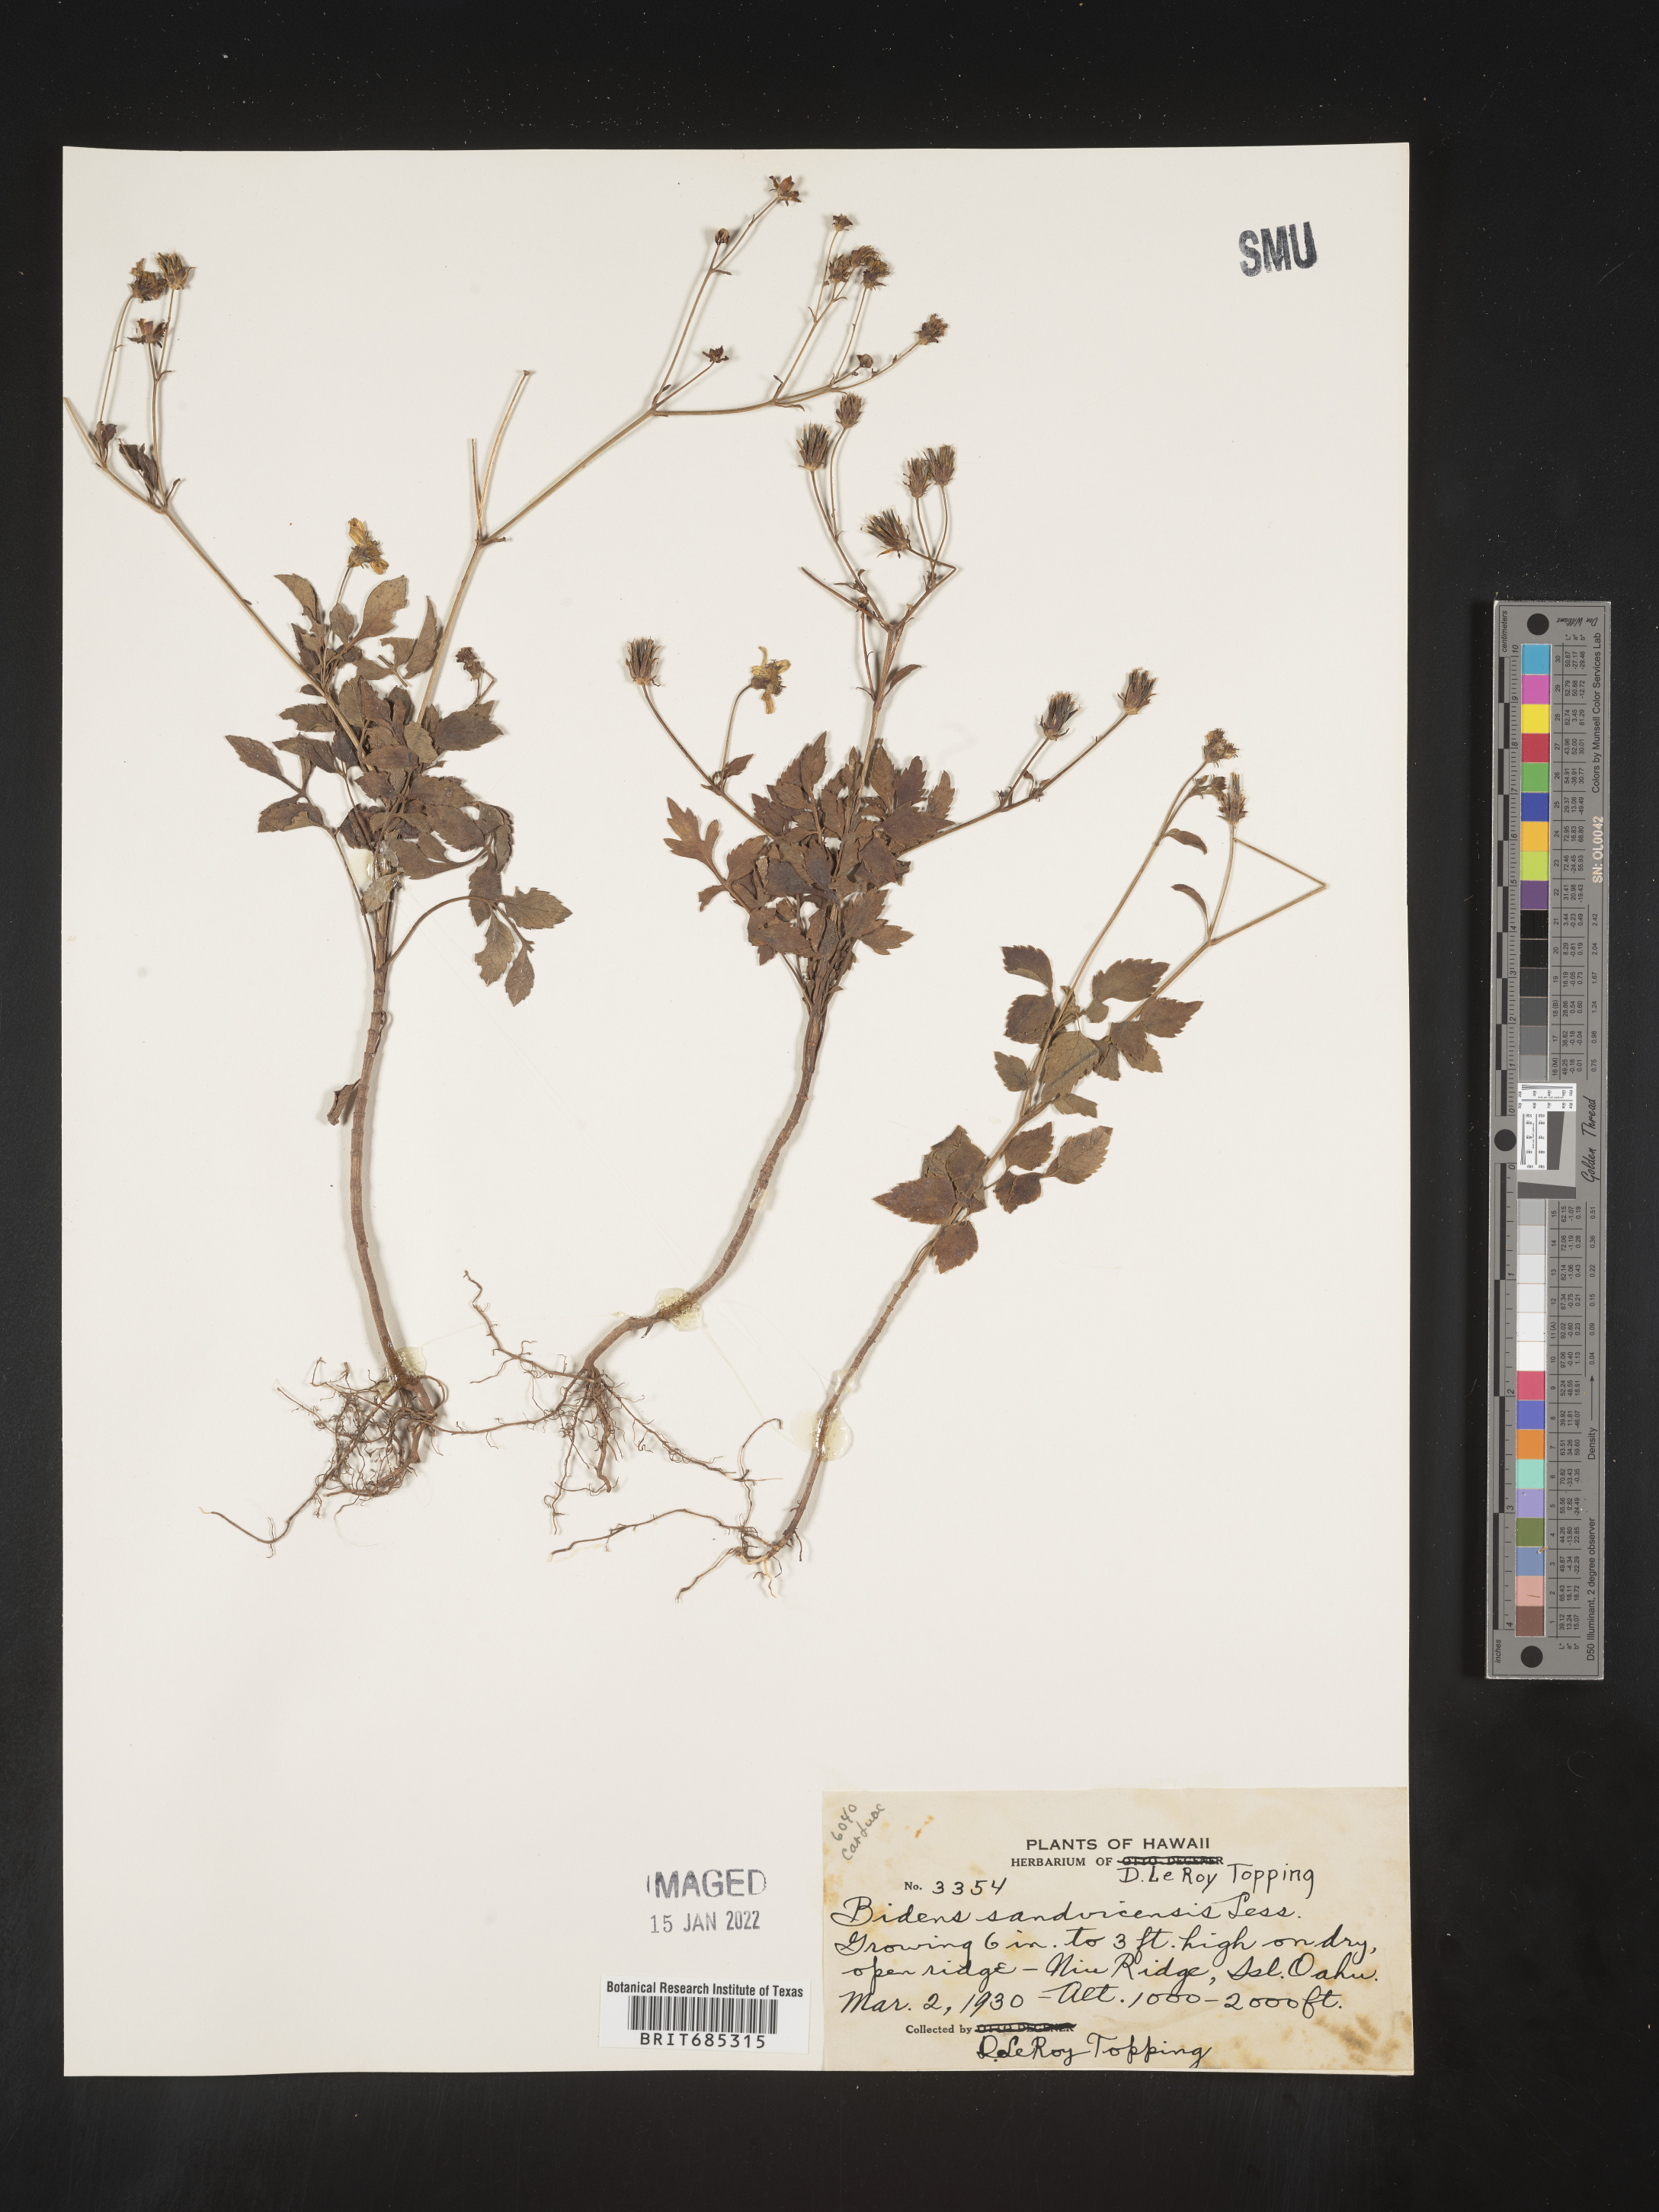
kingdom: Plantae
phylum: Tracheophyta
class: Magnoliopsida
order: Asterales
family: Asteraceae
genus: Bidens
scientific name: Bidens
